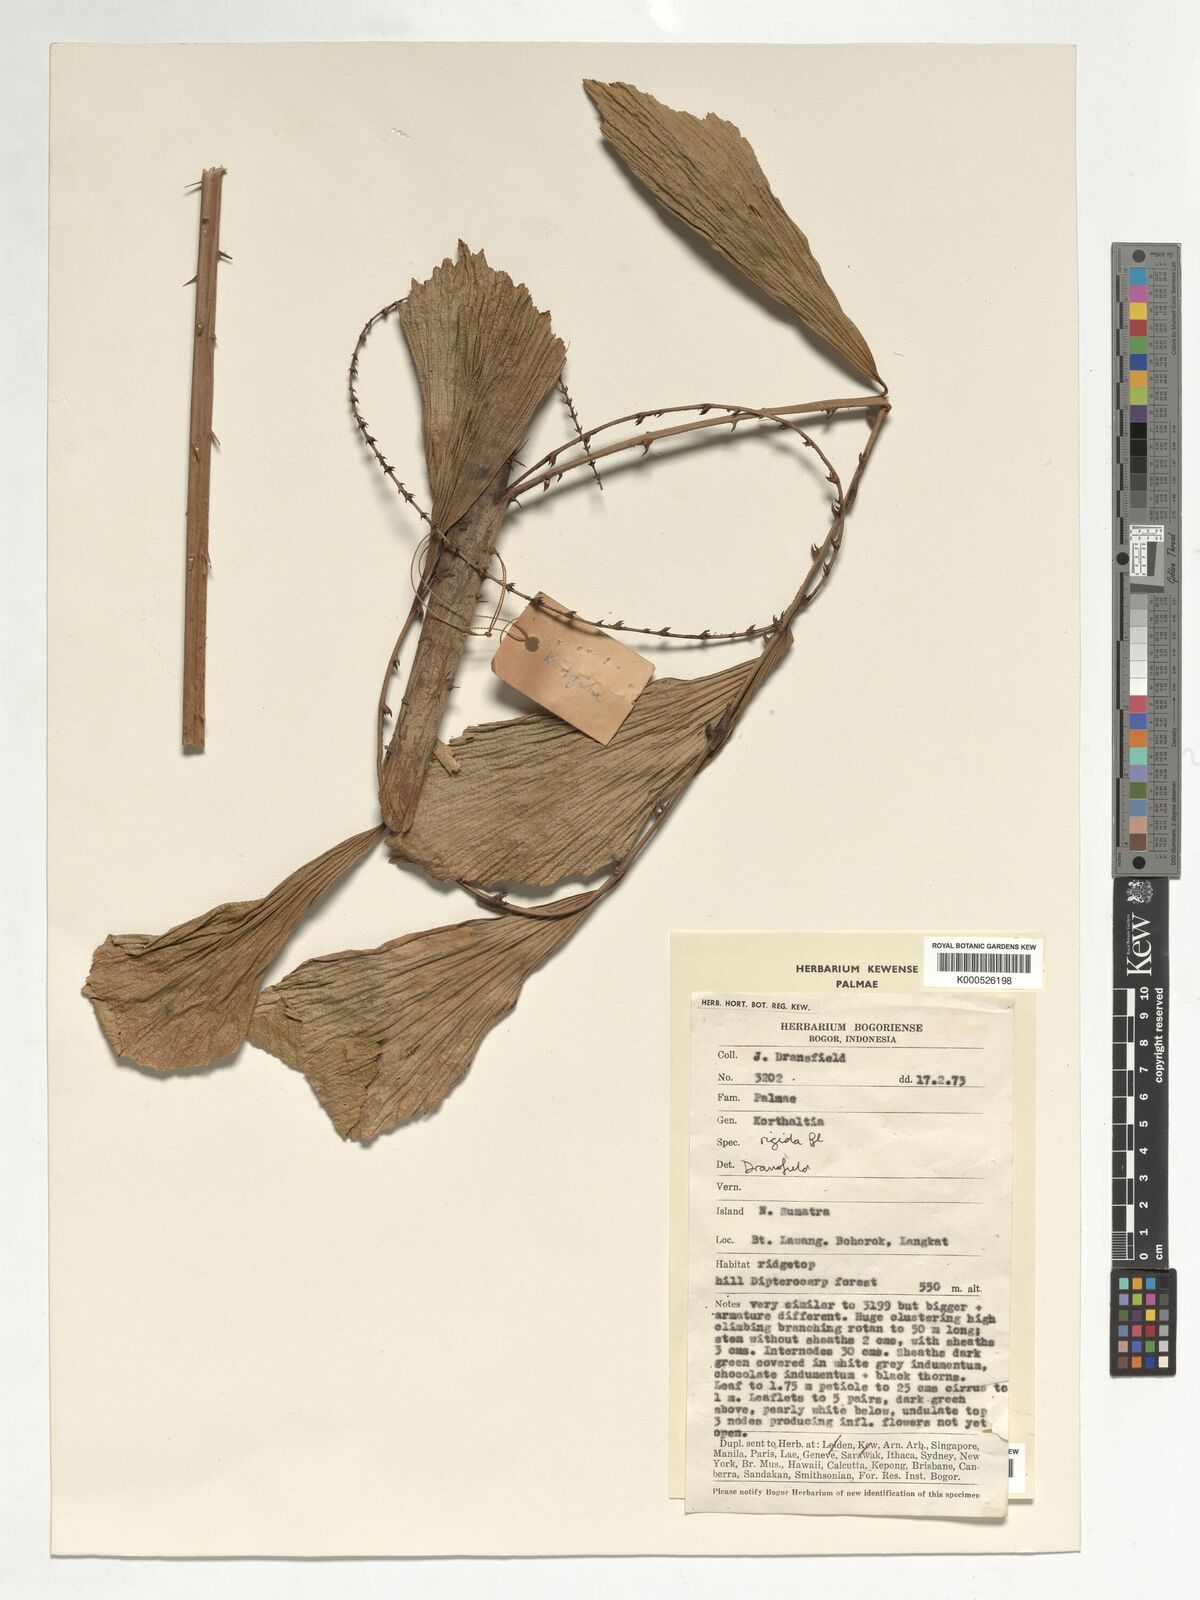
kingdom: Plantae
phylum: Tracheophyta
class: Liliopsida
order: Arecales
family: Arecaceae
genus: Korthalsia
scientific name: Korthalsia rigida
